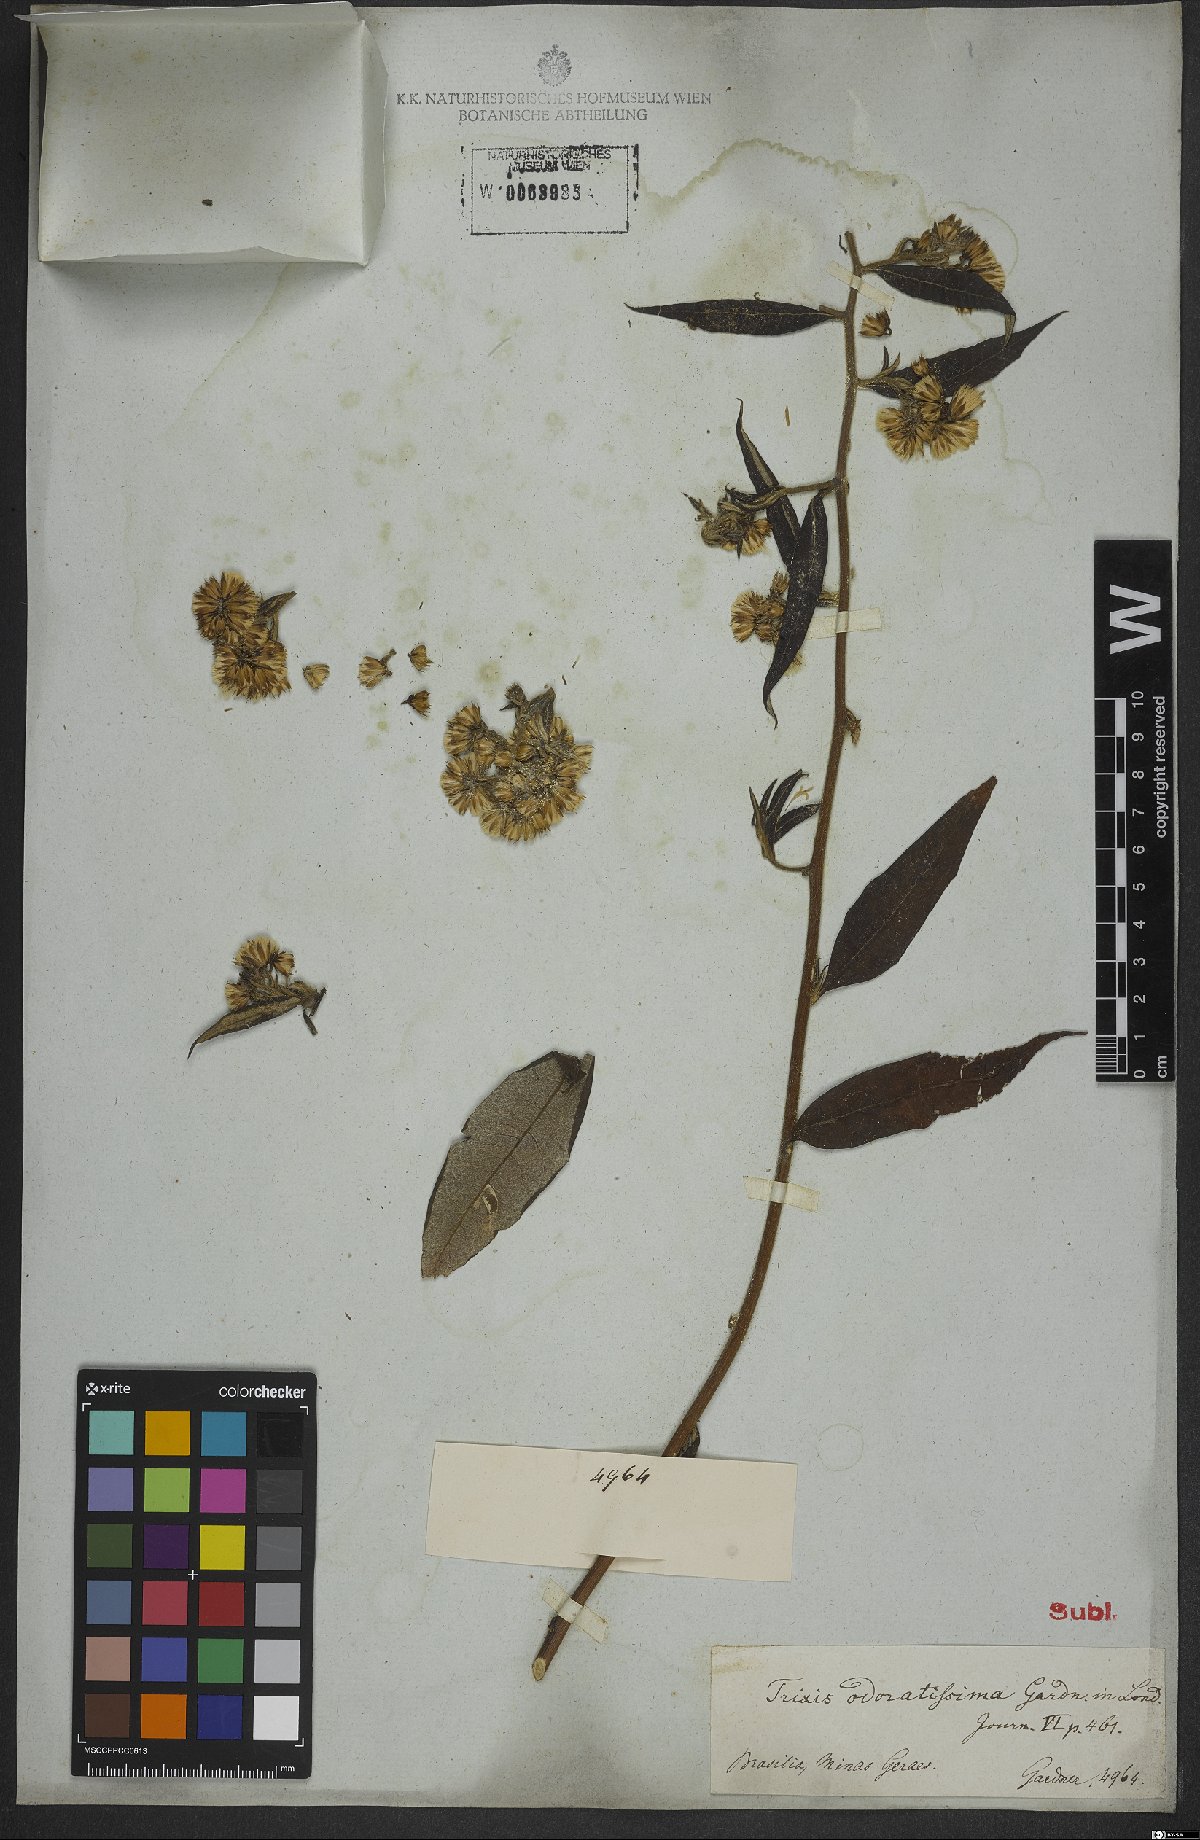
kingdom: Plantae
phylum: Tracheophyta
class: Magnoliopsida
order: Asterales
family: Asteraceae
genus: Trixis
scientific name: Trixis divaricata
